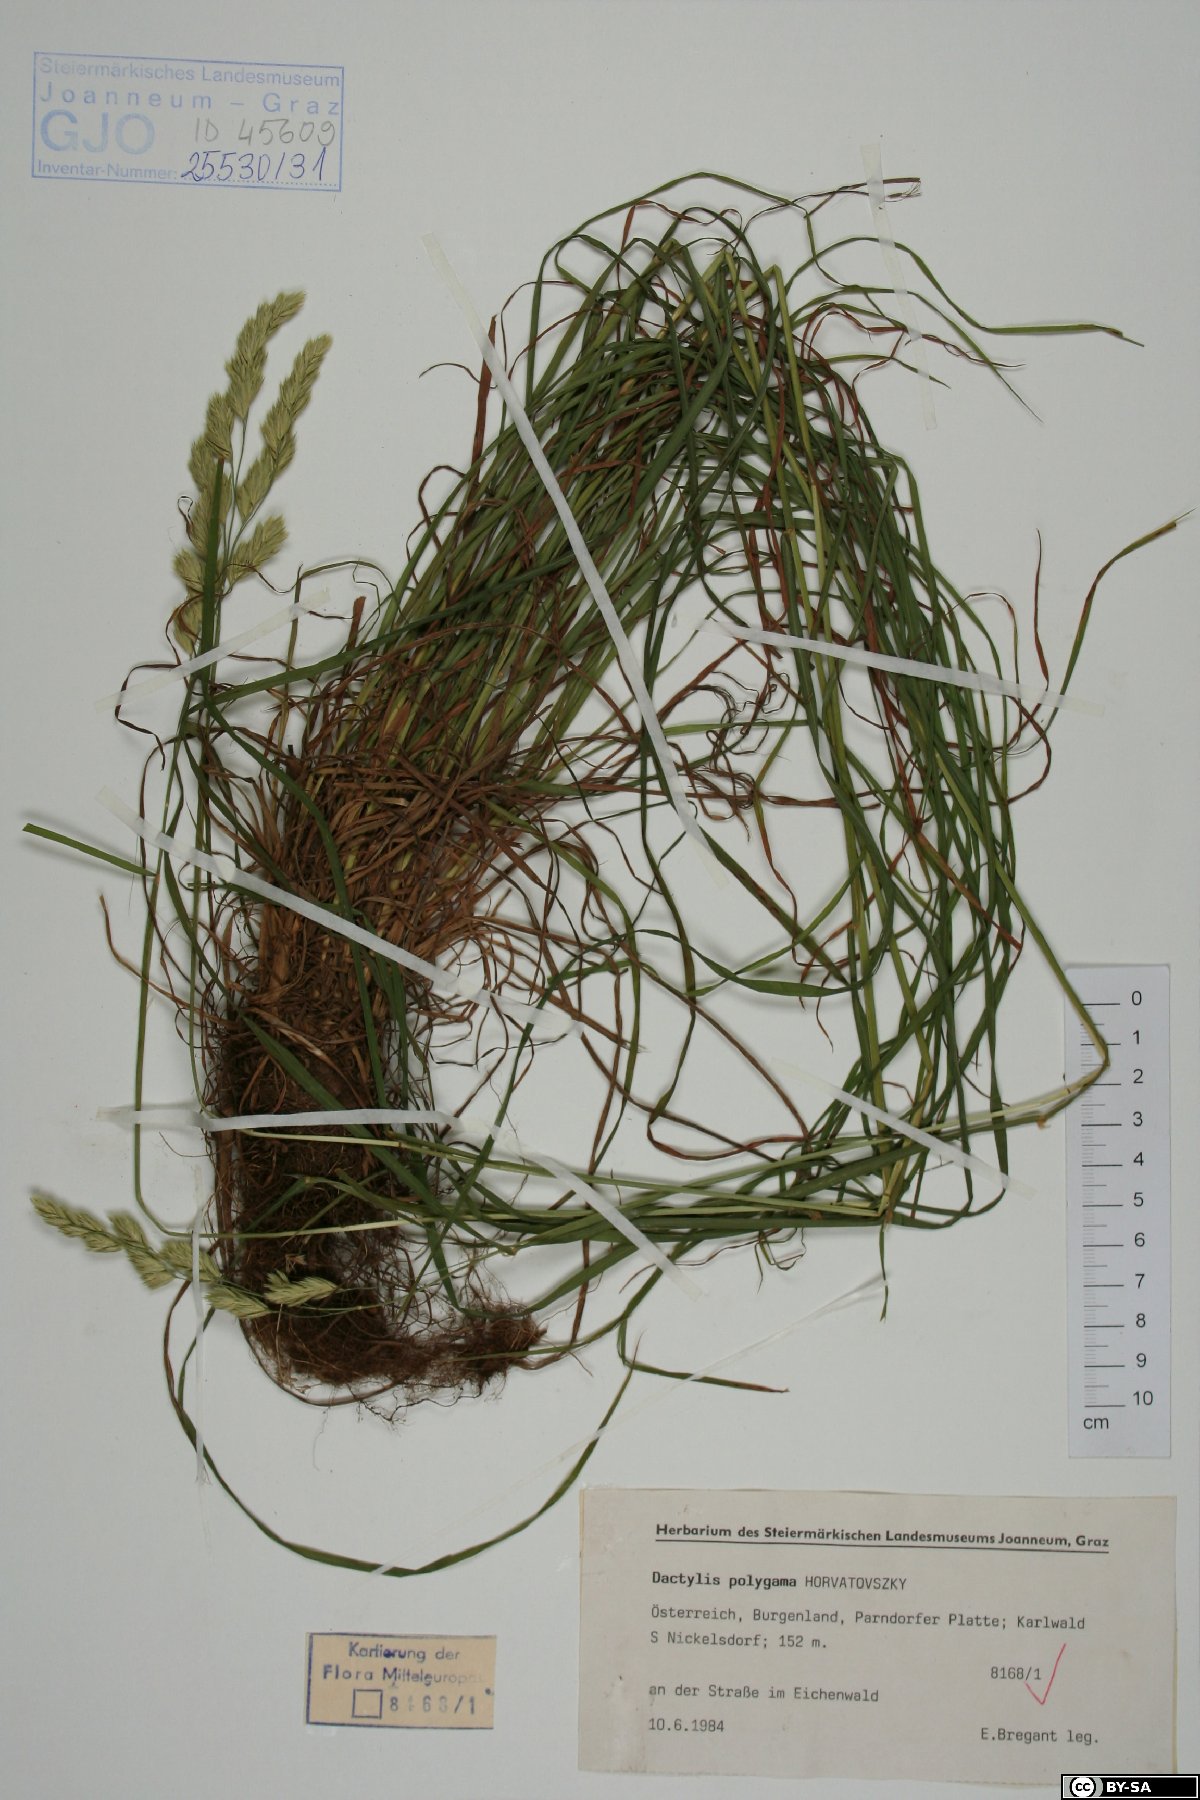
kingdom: Plantae
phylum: Tracheophyta
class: Liliopsida
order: Poales
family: Poaceae
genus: Dactylis
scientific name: Dactylis glomerata
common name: Orchardgrass
